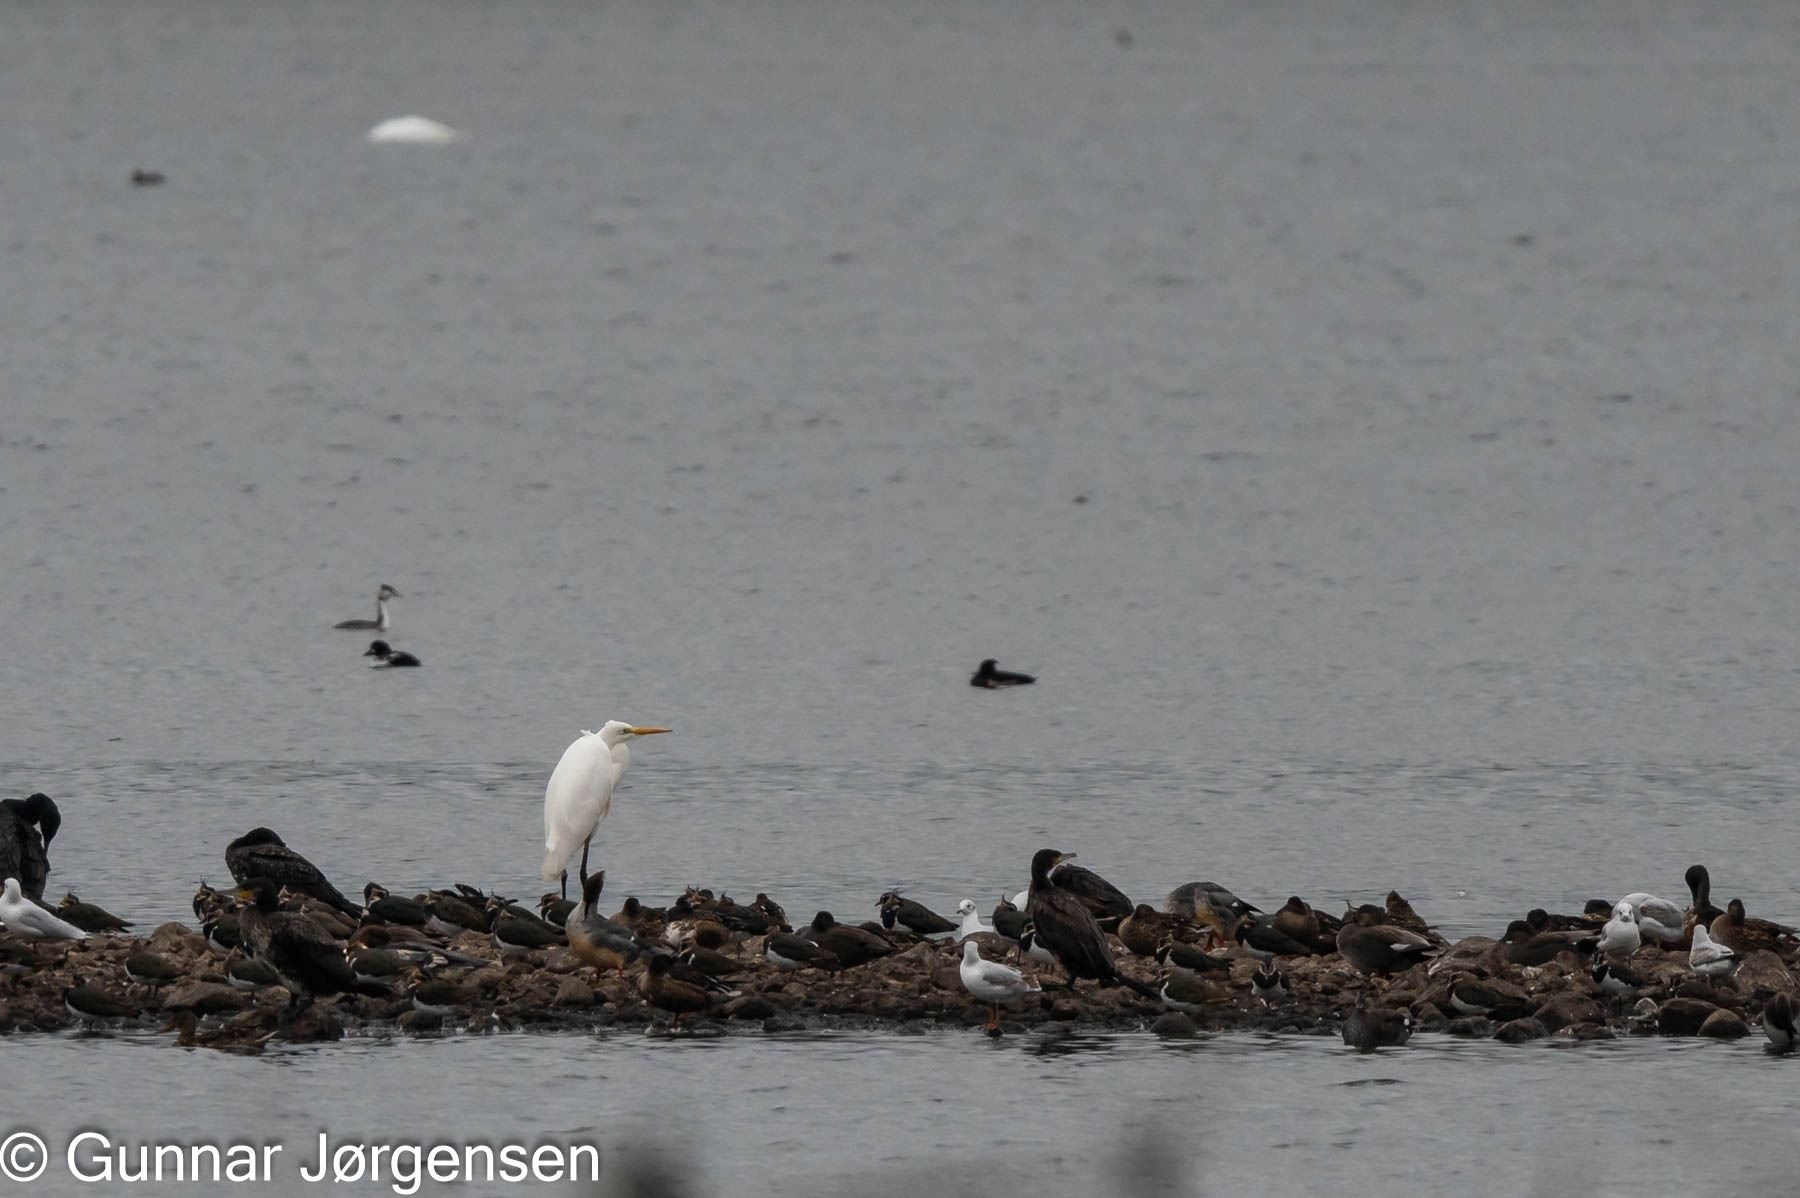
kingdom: Animalia
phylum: Chordata
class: Aves
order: Pelecaniformes
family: Ardeidae
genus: Ardea
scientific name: Ardea alba
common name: Sølvhejre
